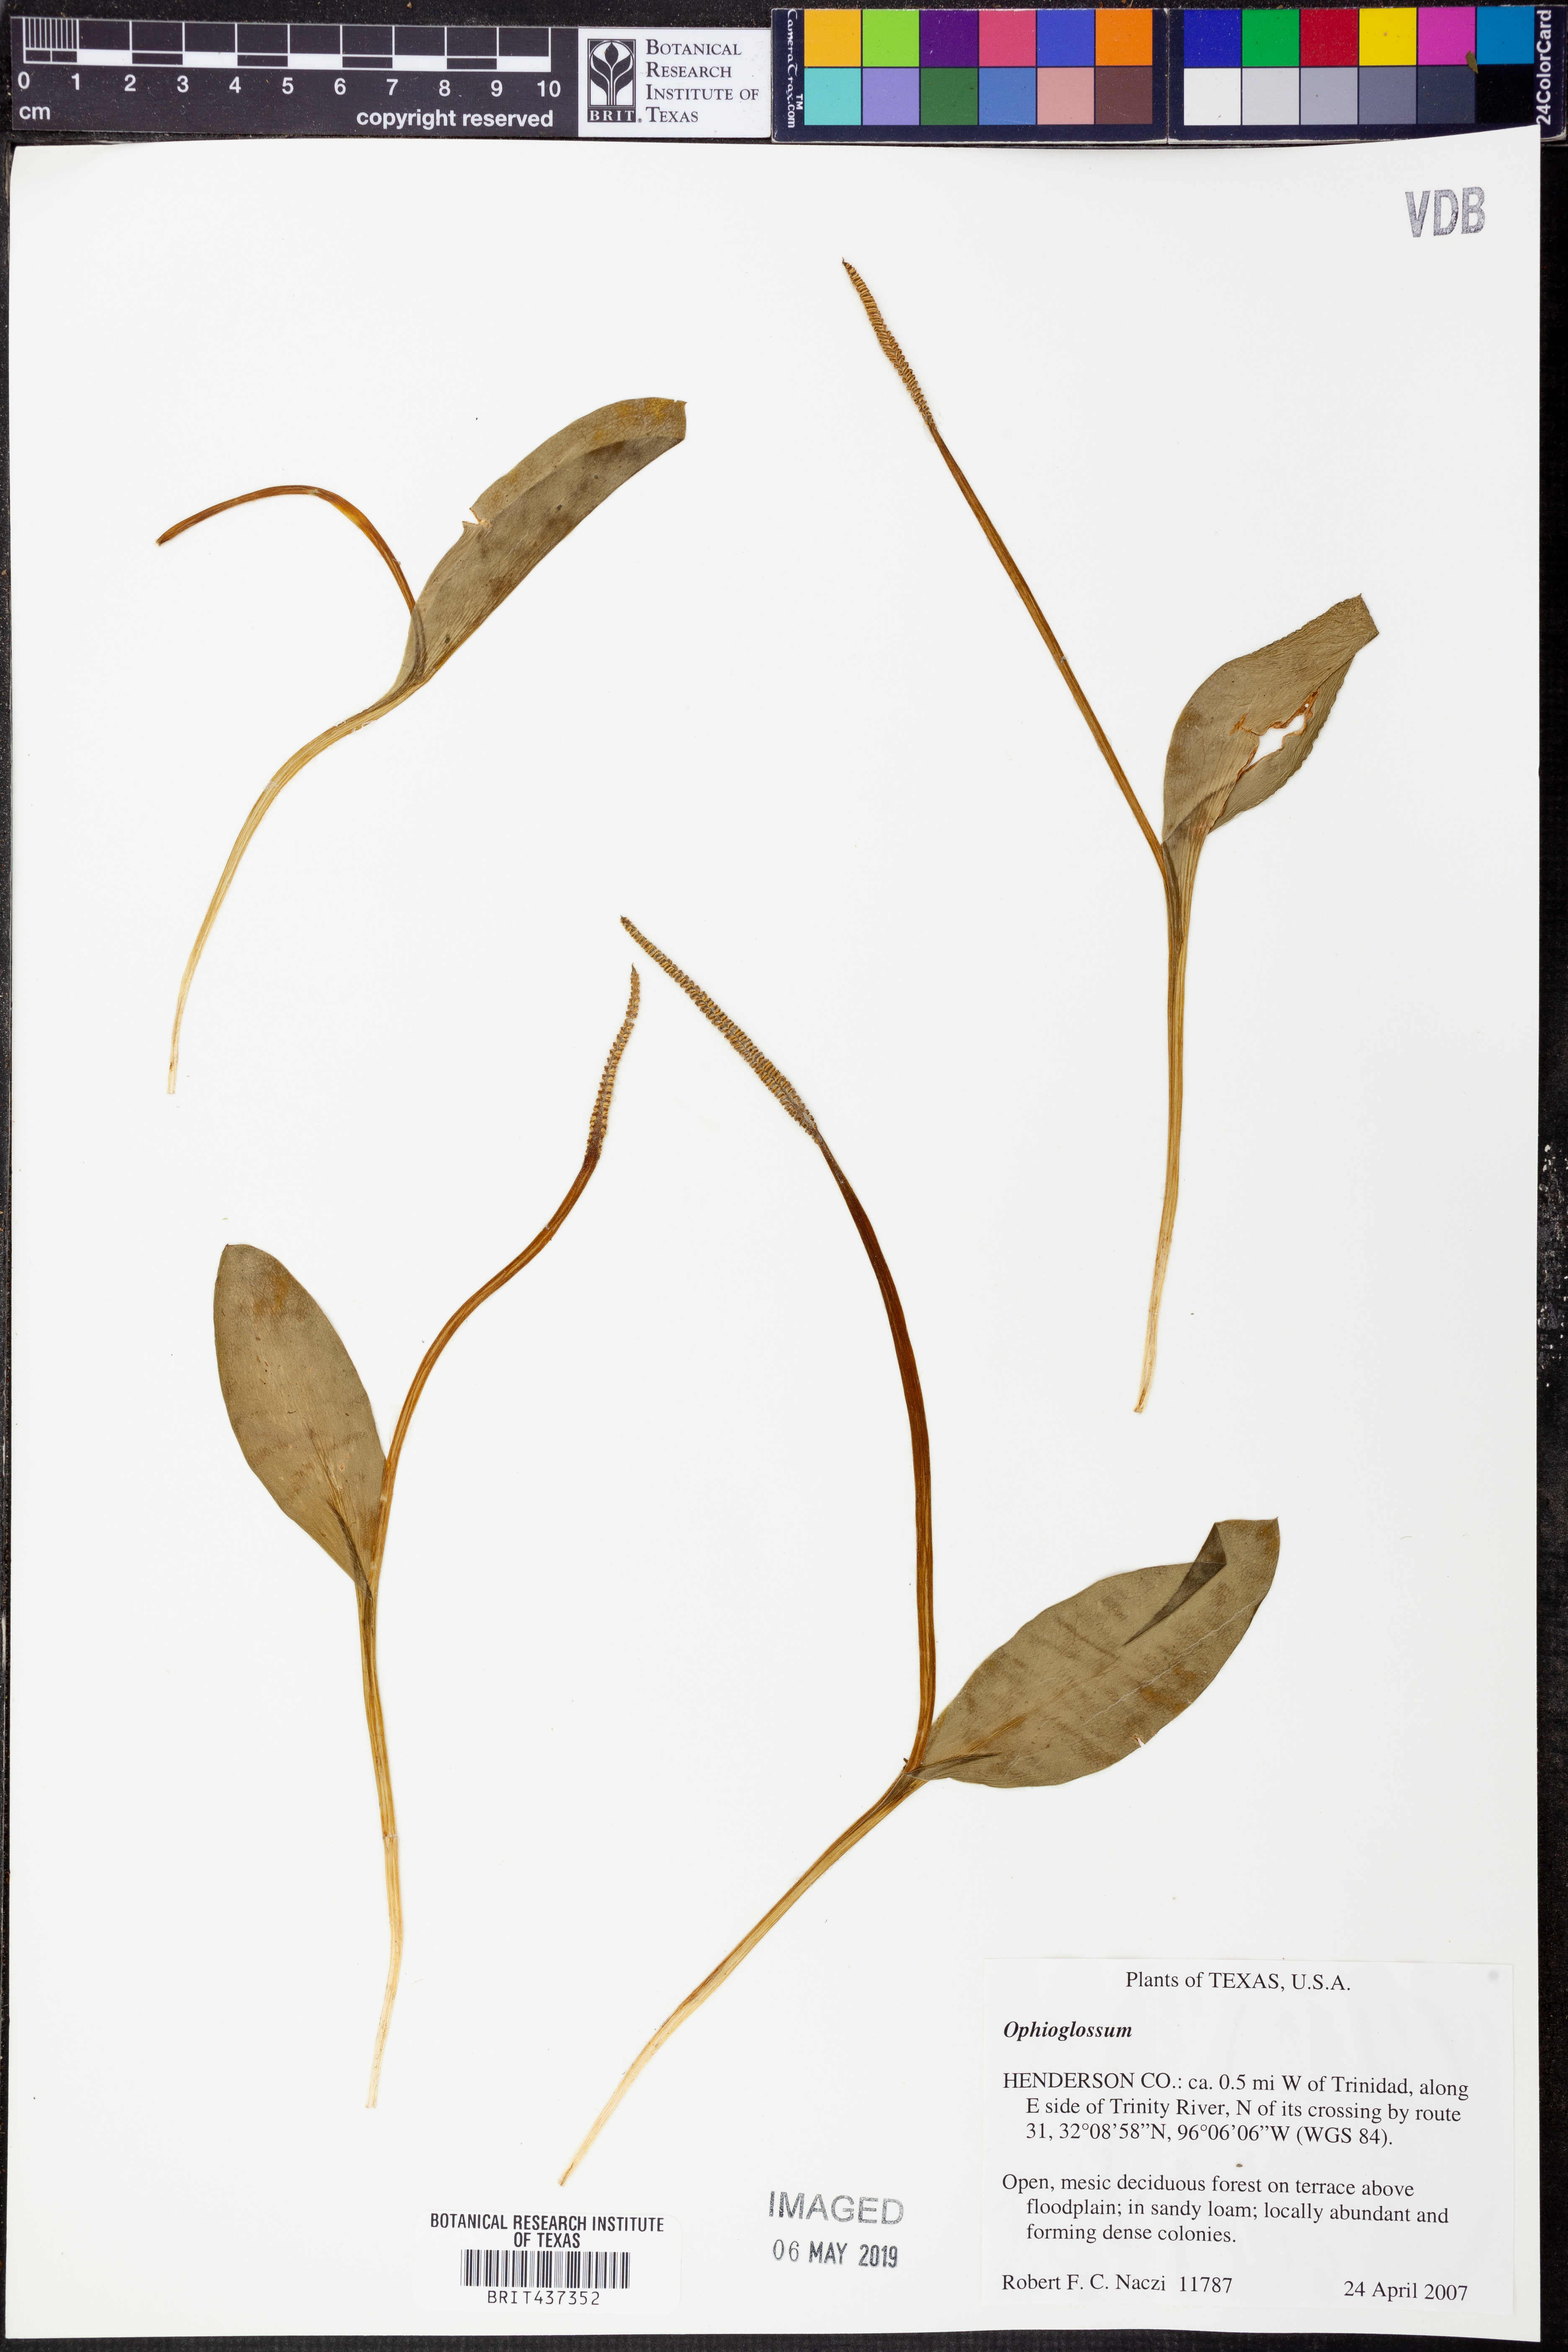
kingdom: Plantae
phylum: Tracheophyta
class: Polypodiopsida
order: Ophioglossales
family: Ophioglossaceae
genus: Ophioglossum
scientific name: Ophioglossum
